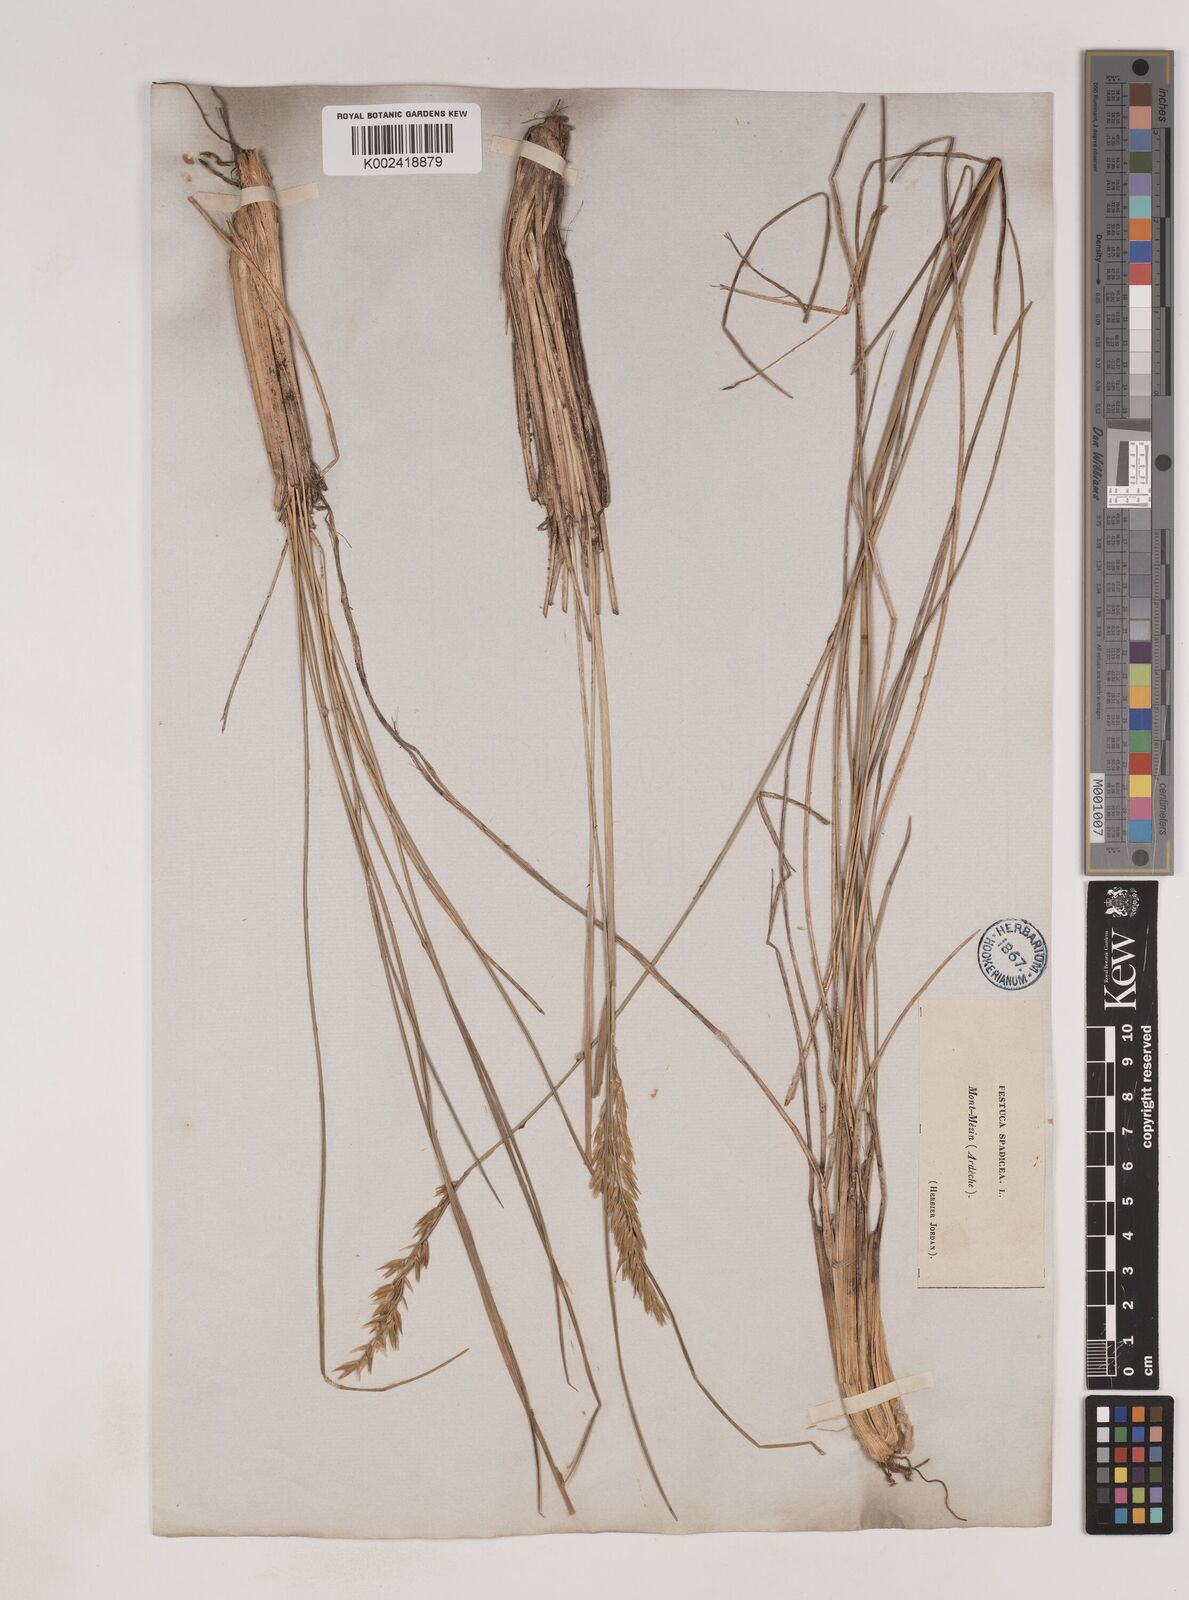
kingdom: Plantae
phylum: Tracheophyta
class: Liliopsida
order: Poales
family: Poaceae
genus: Patzkea
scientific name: Patzkea paniculata
